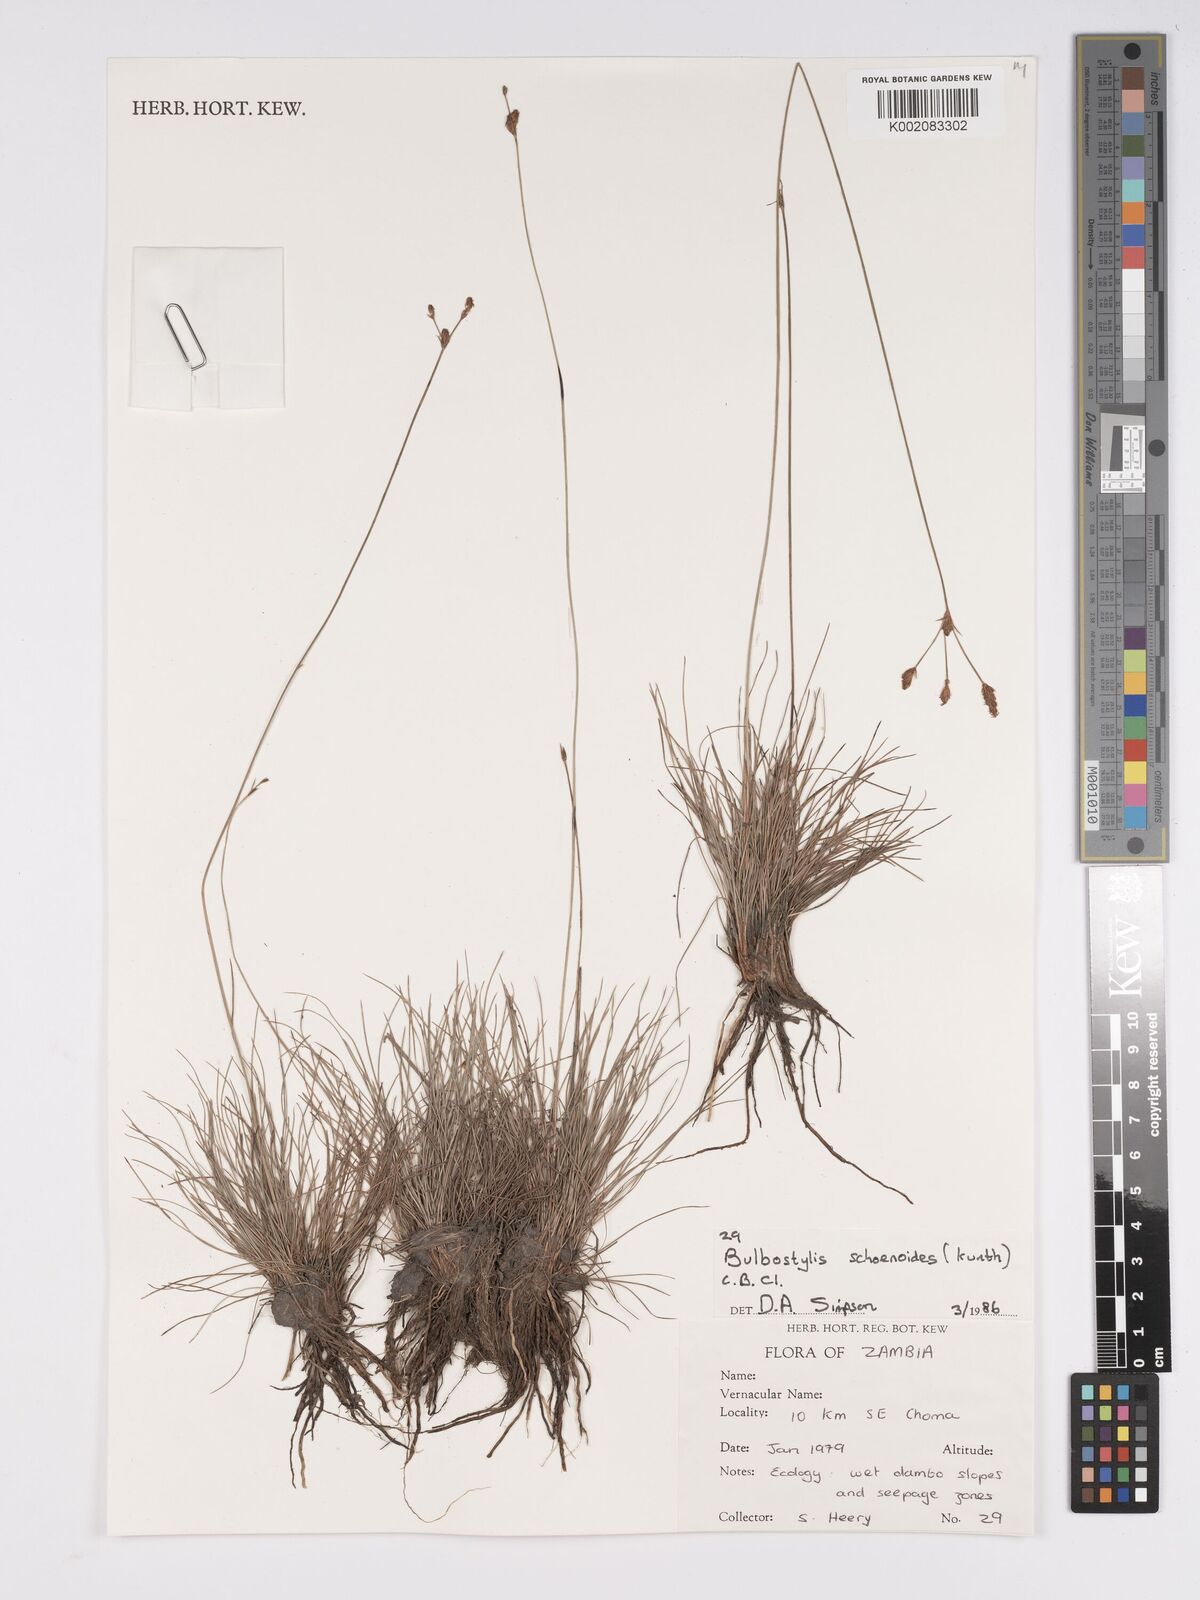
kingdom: Plantae
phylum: Tracheophyta
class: Liliopsida
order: Poales
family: Cyperaceae
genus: Bulbostylis
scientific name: Bulbostylis schoenoides
